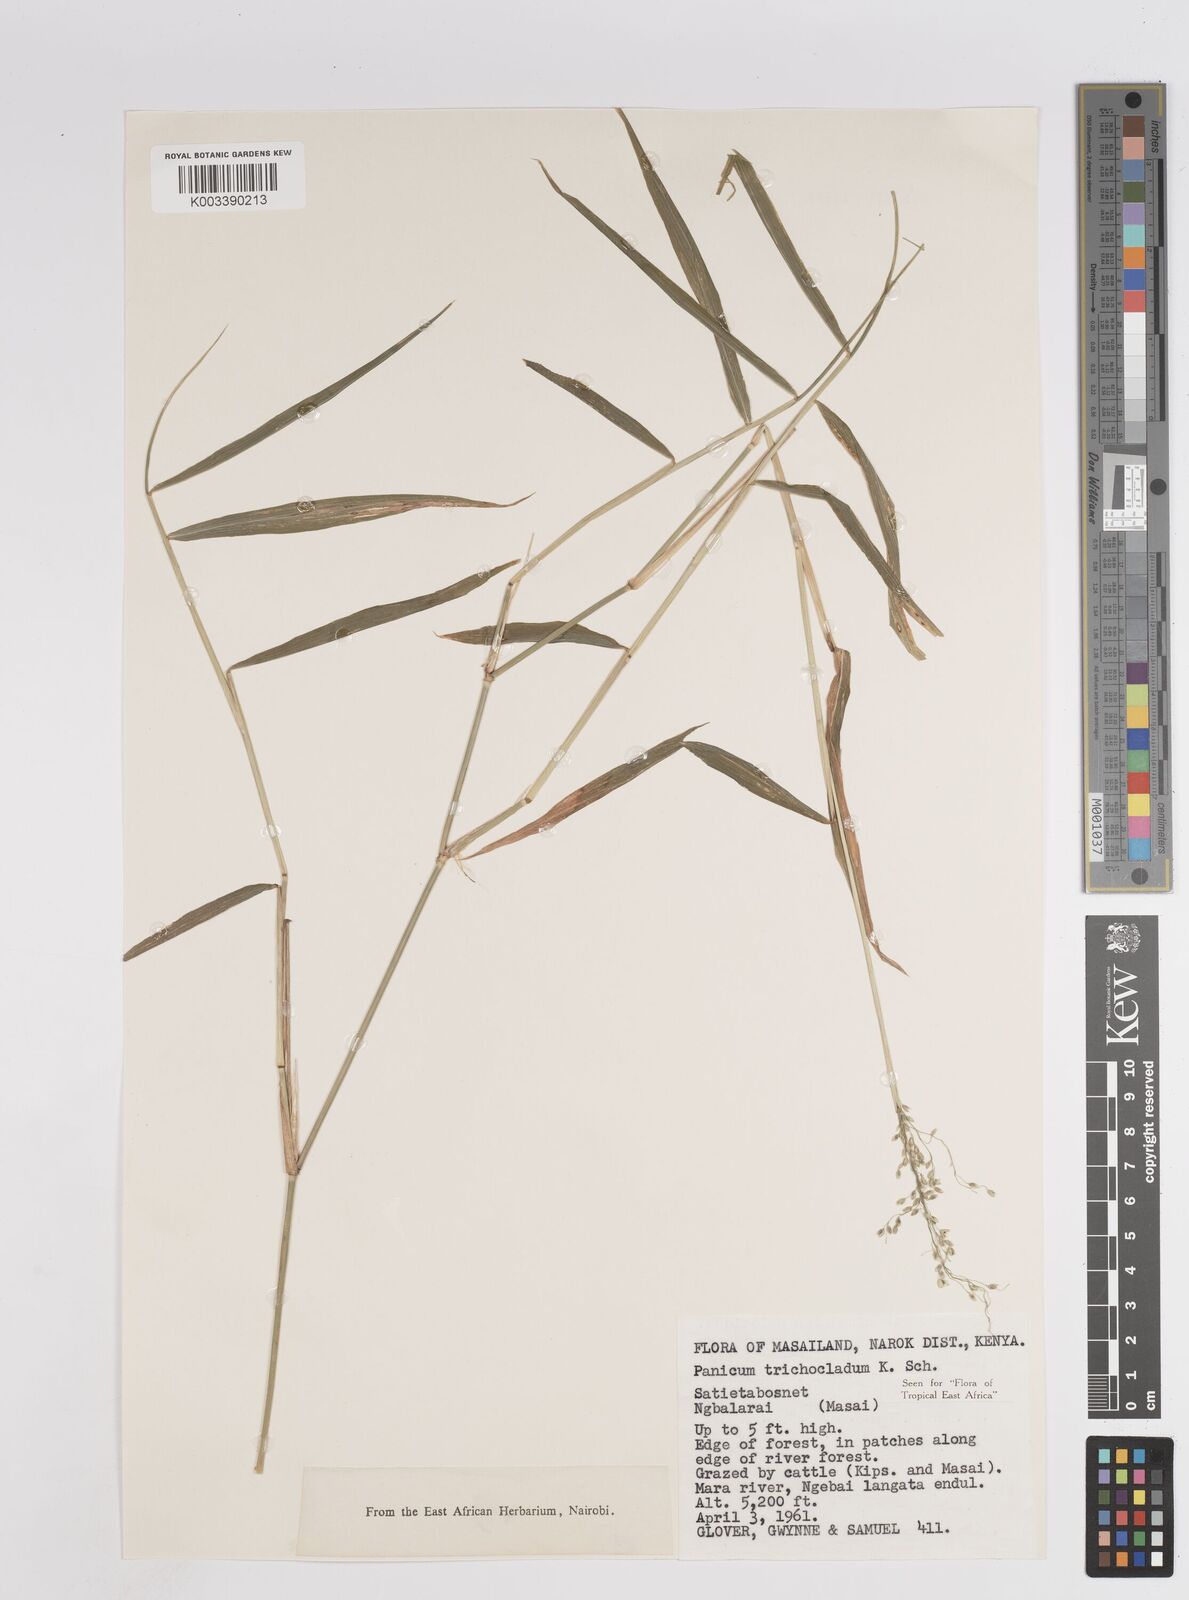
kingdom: Plantae
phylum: Tracheophyta
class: Liliopsida
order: Poales
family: Poaceae
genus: Panicum
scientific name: Panicum trichocladum
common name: Donkey grass
